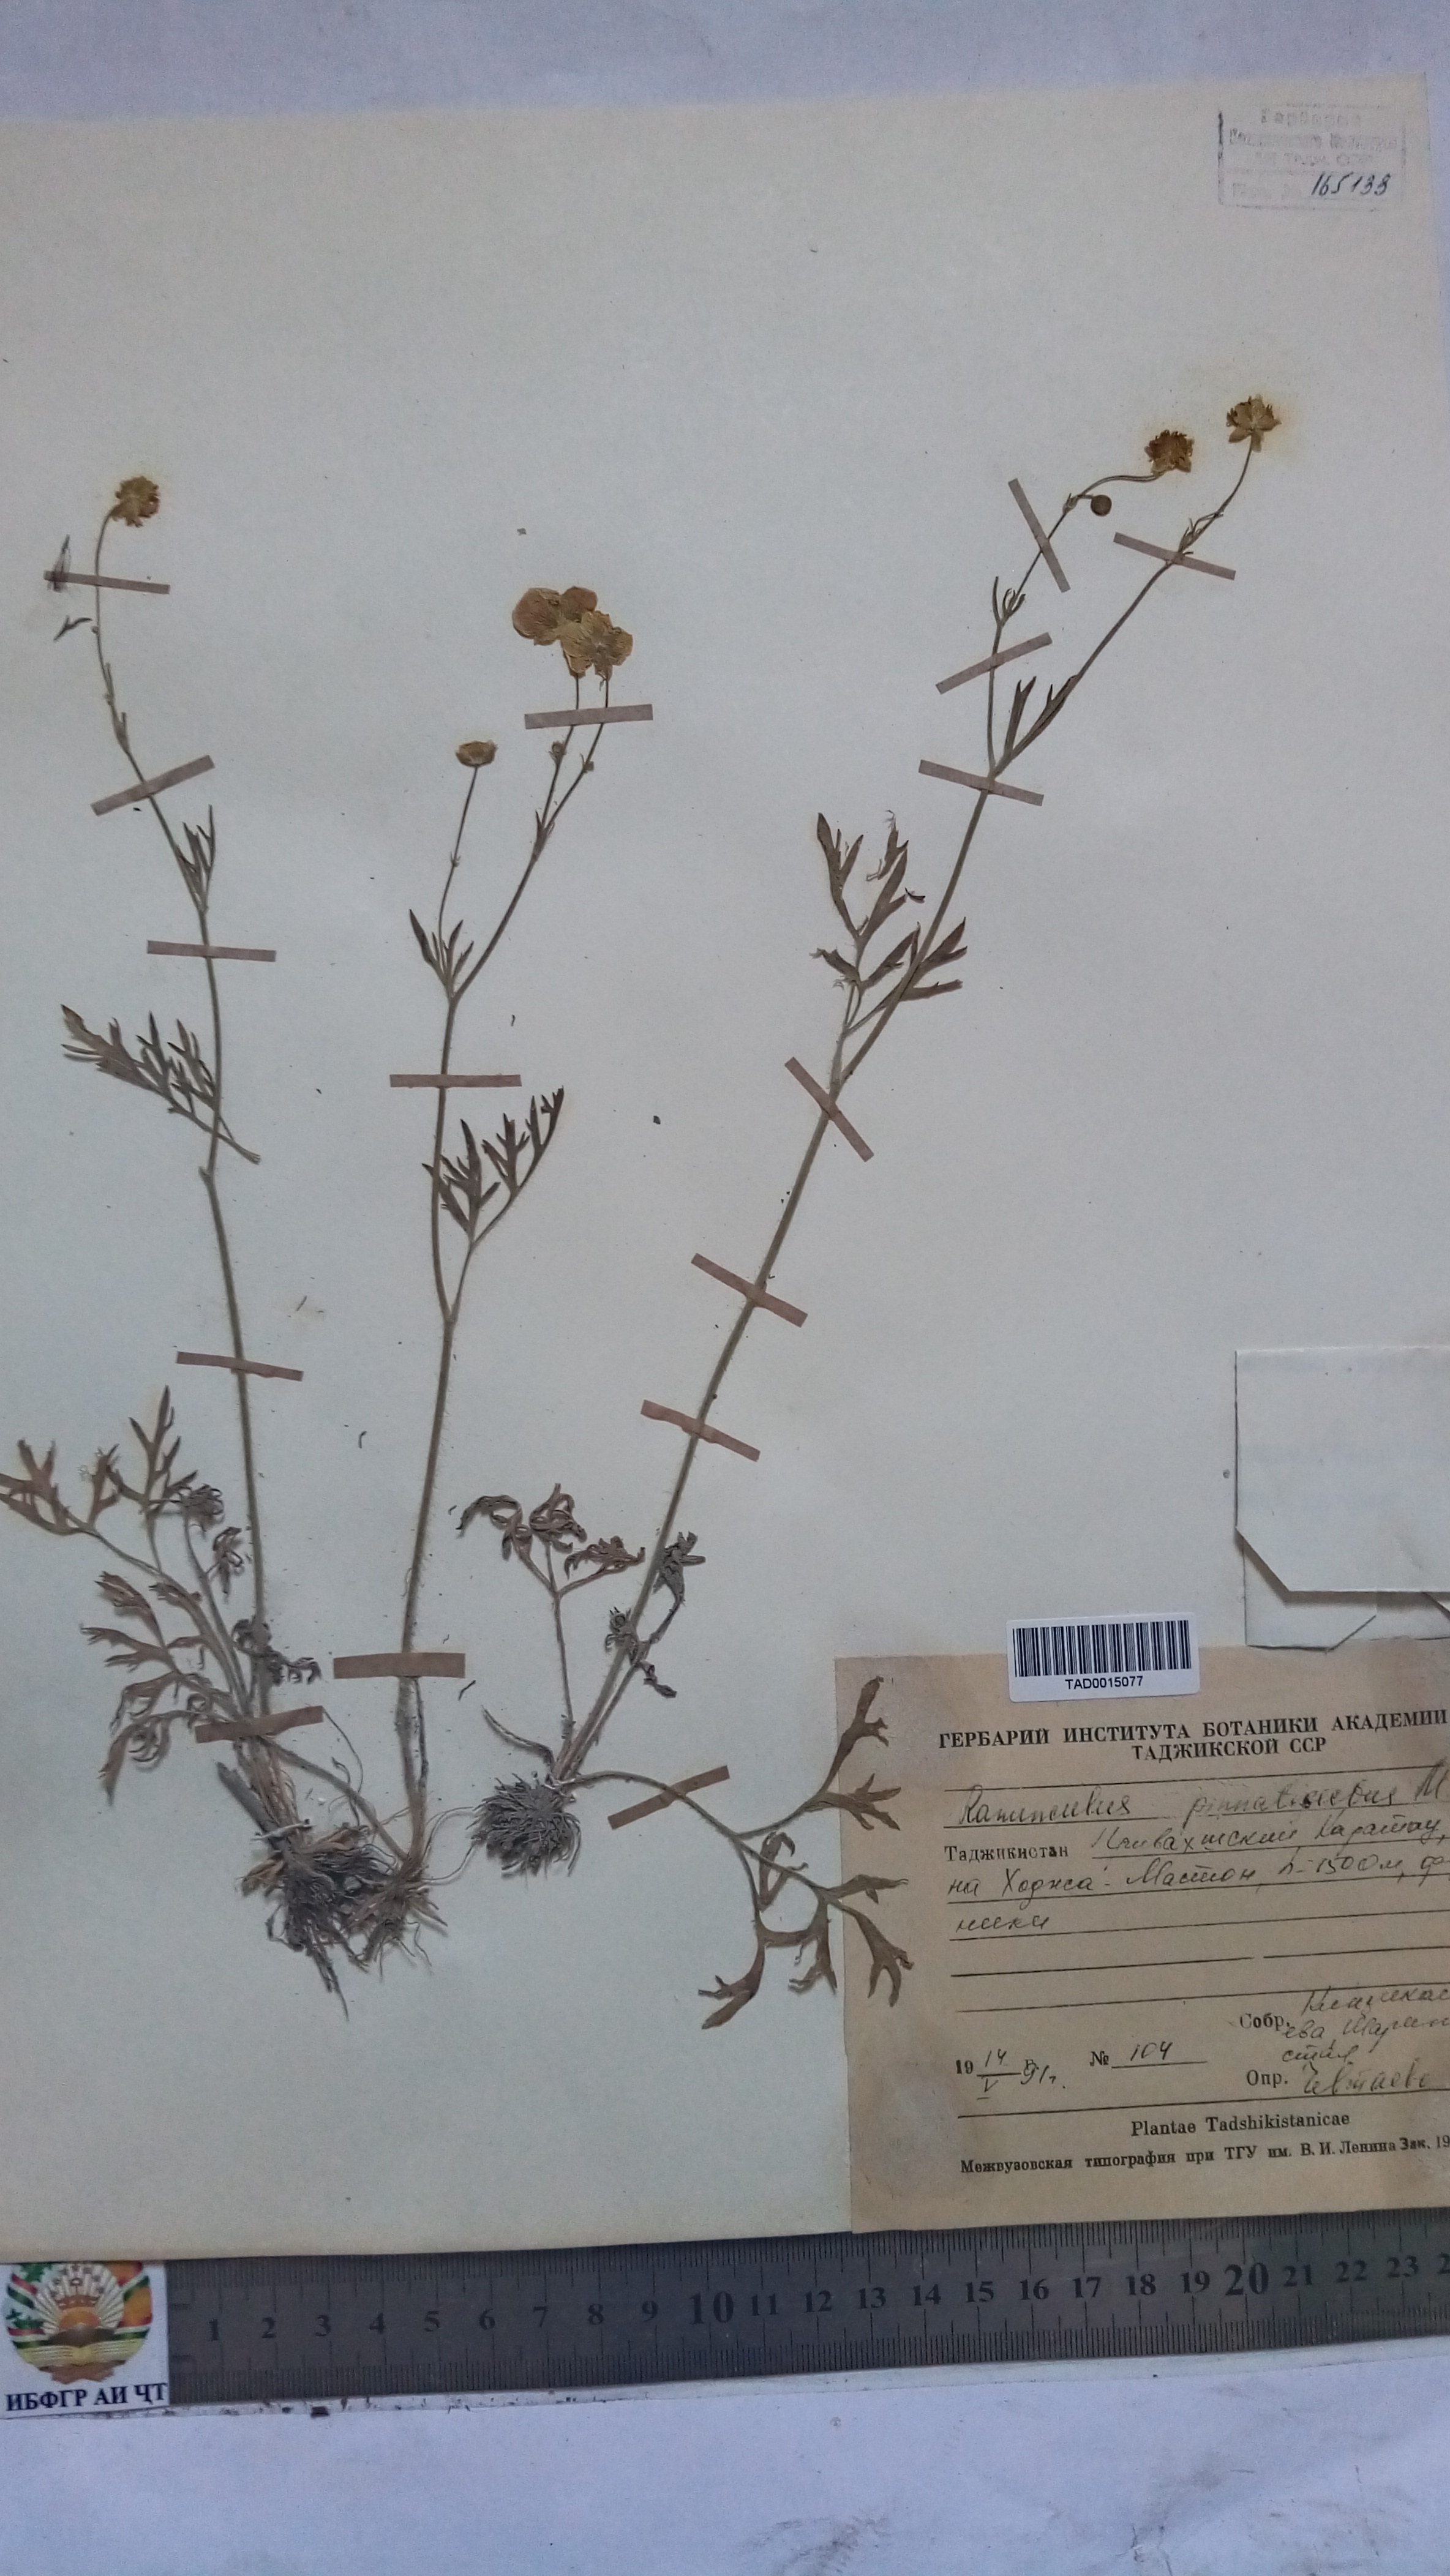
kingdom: Plantae
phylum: Tracheophyta
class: Magnoliopsida
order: Ranunculales
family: Ranunculaceae
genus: Ranunculus
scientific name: Ranunculus pinnatisectus
